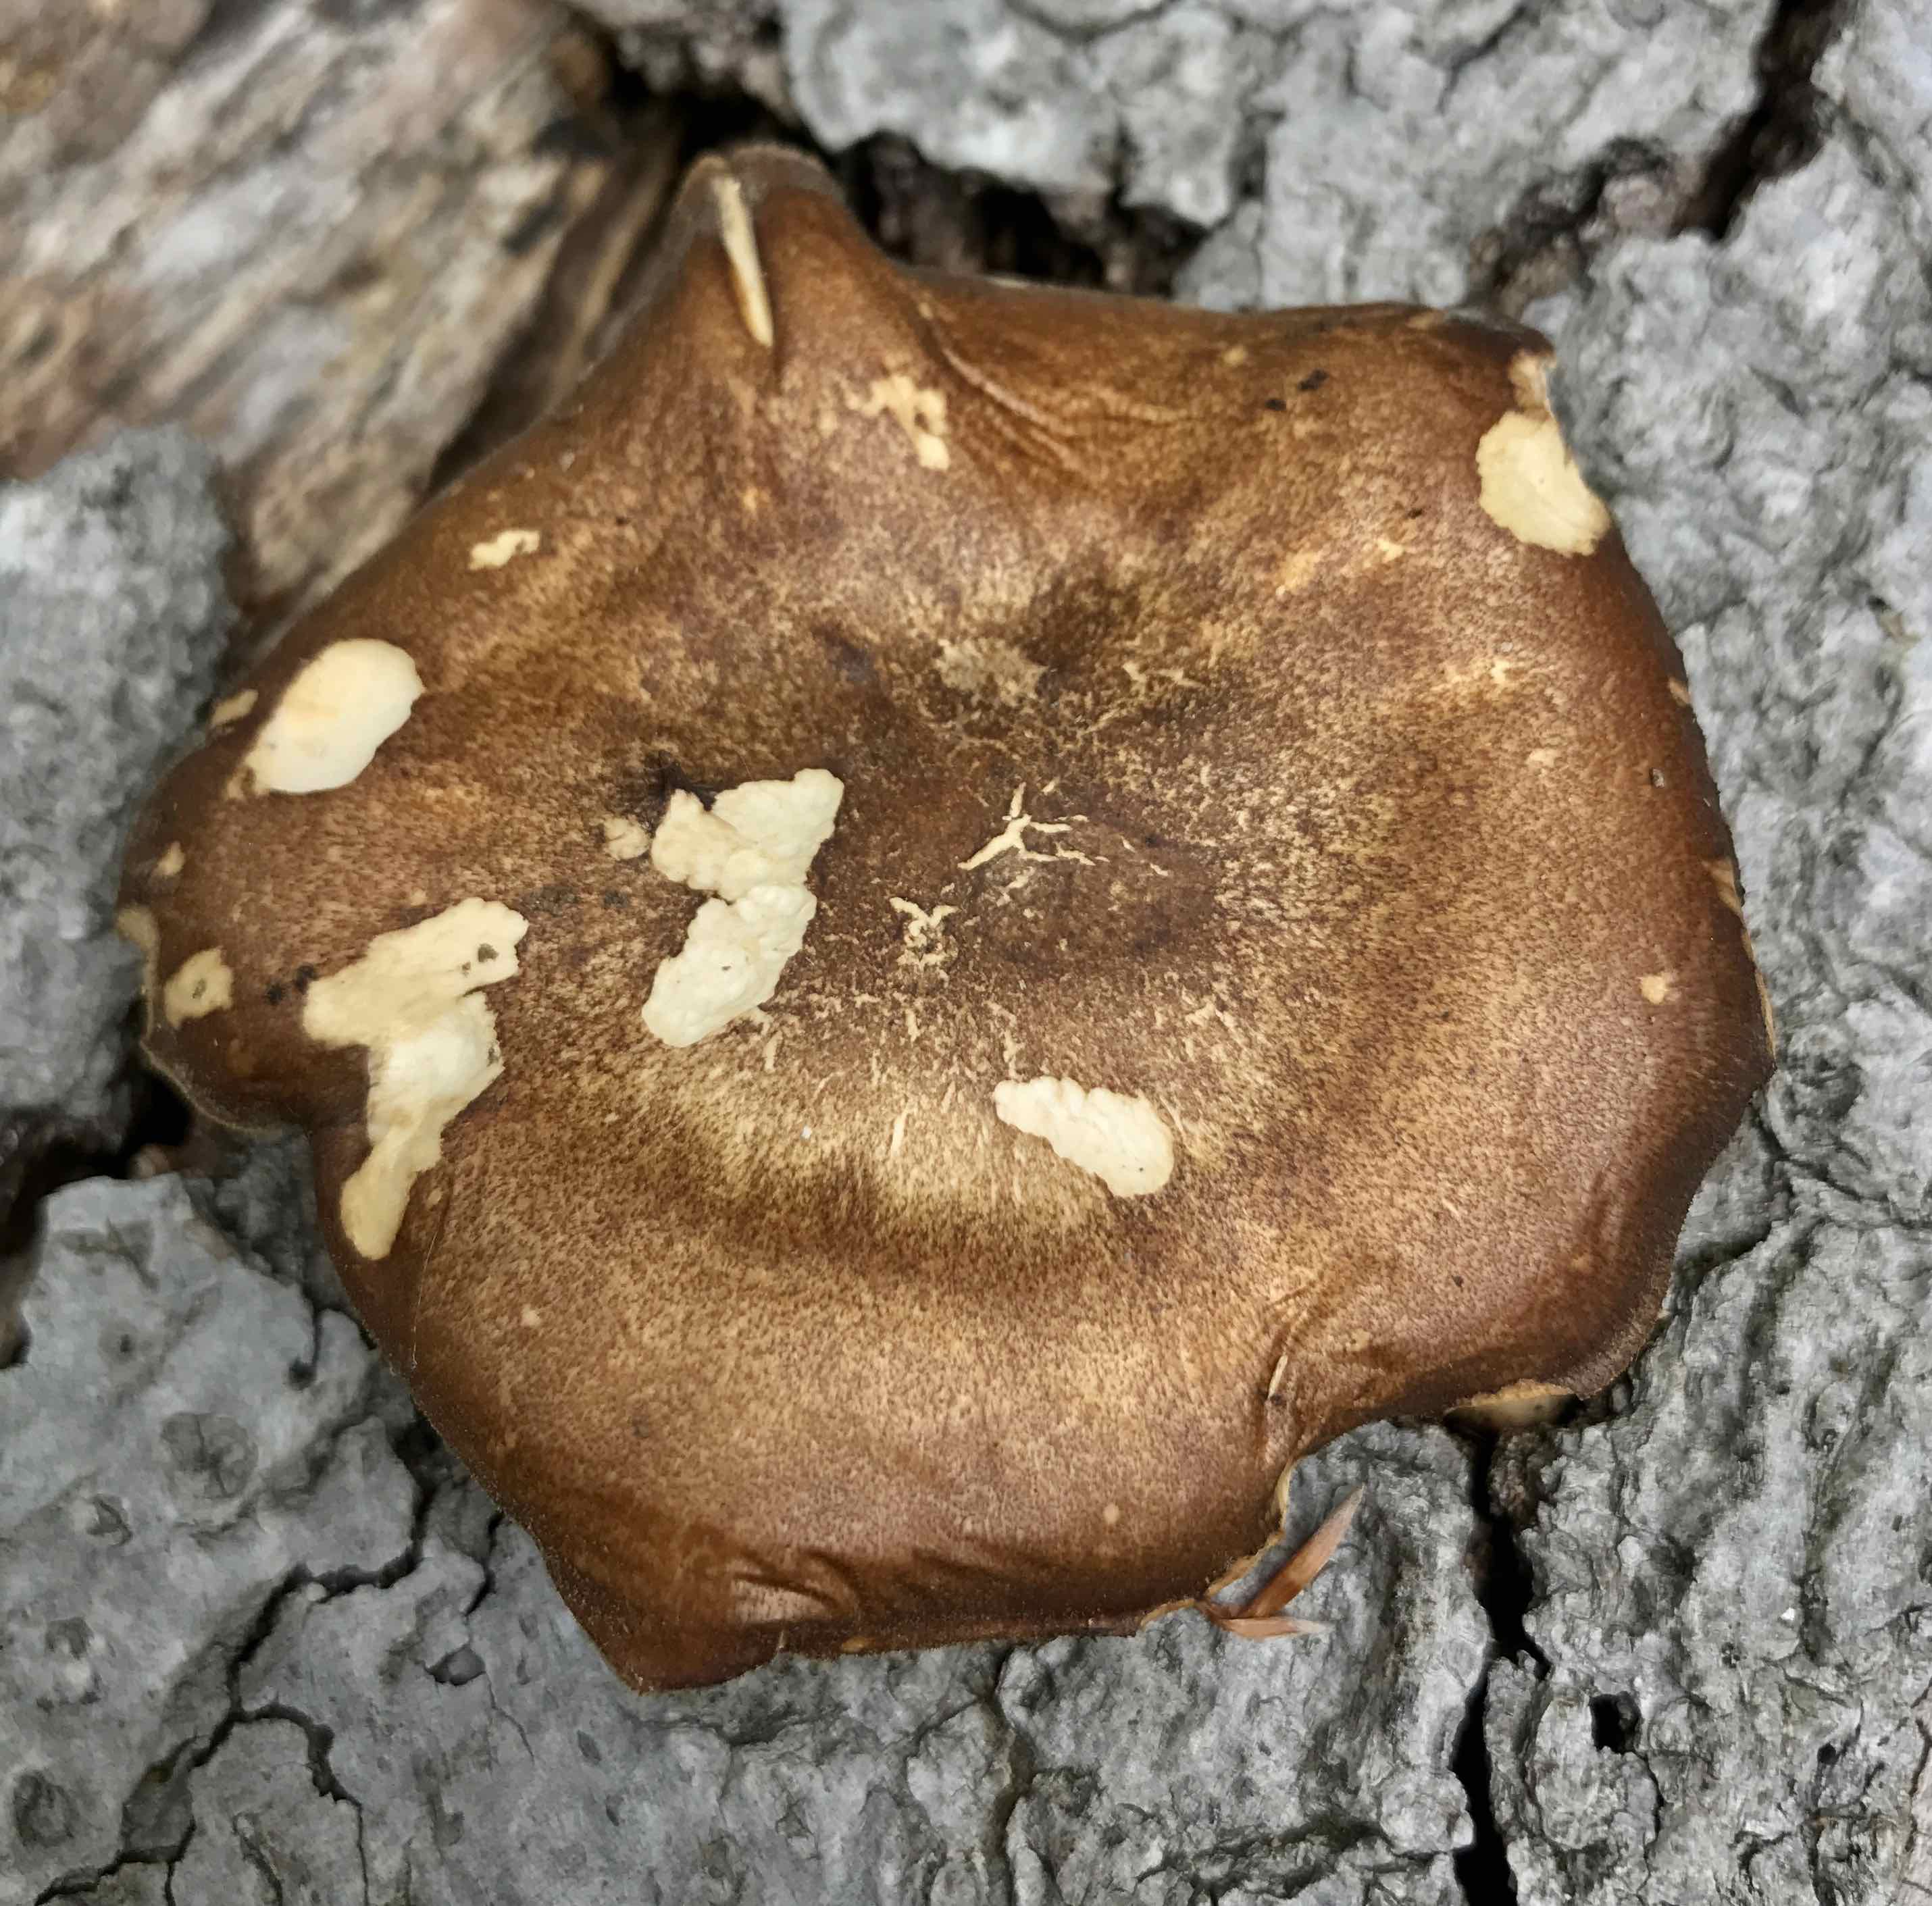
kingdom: Fungi
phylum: Basidiomycota
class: Agaricomycetes
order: Polyporales
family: Polyporaceae
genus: Cerioporus
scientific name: Cerioporus varius
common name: foranderlig stilkporesvamp
